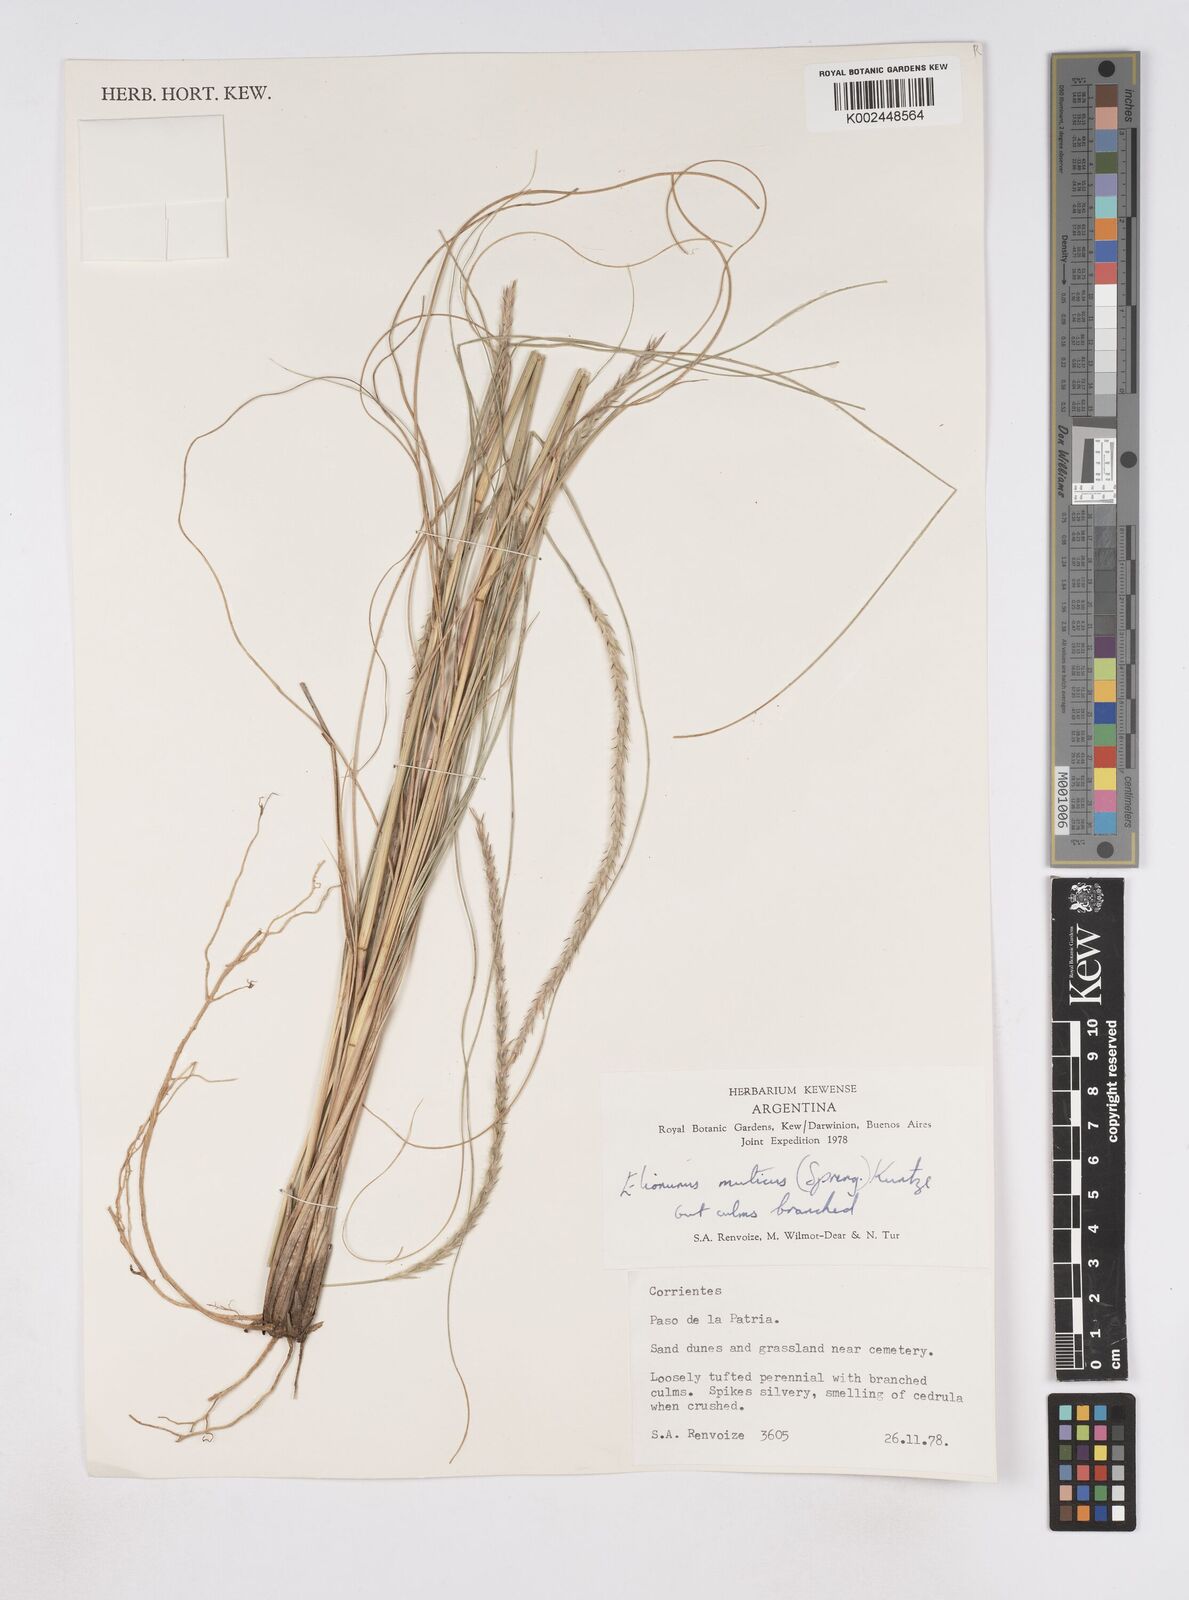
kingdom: Plantae
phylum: Tracheophyta
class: Liliopsida
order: Poales
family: Poaceae
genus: Elionurus
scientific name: Elionurus muticus
